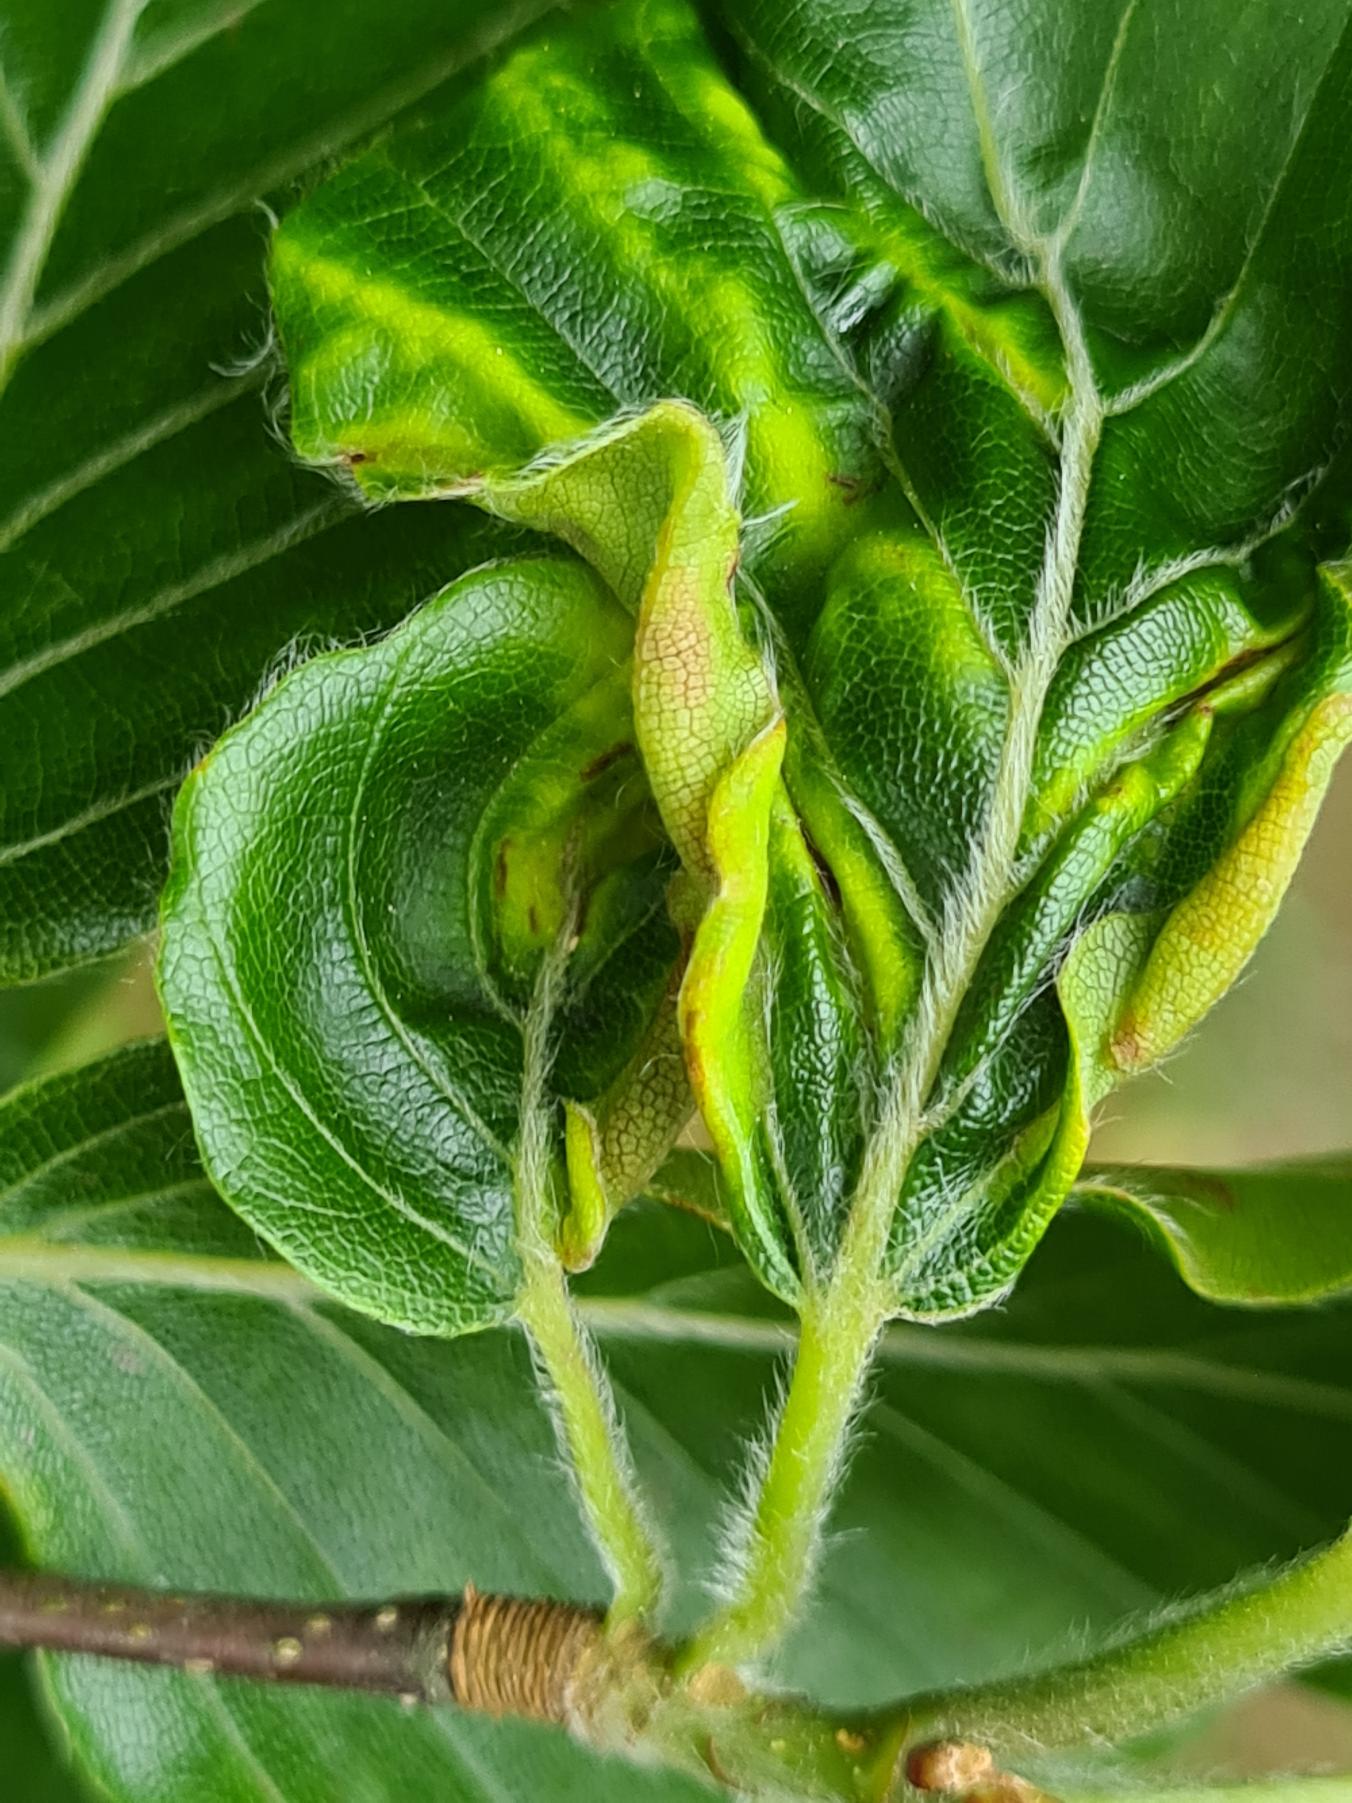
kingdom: Animalia
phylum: Arthropoda
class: Insecta
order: Diptera
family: Cecidomyiidae
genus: Phegomyia
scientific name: Phegomyia fagicola
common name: Bøgefoldegalmyg
